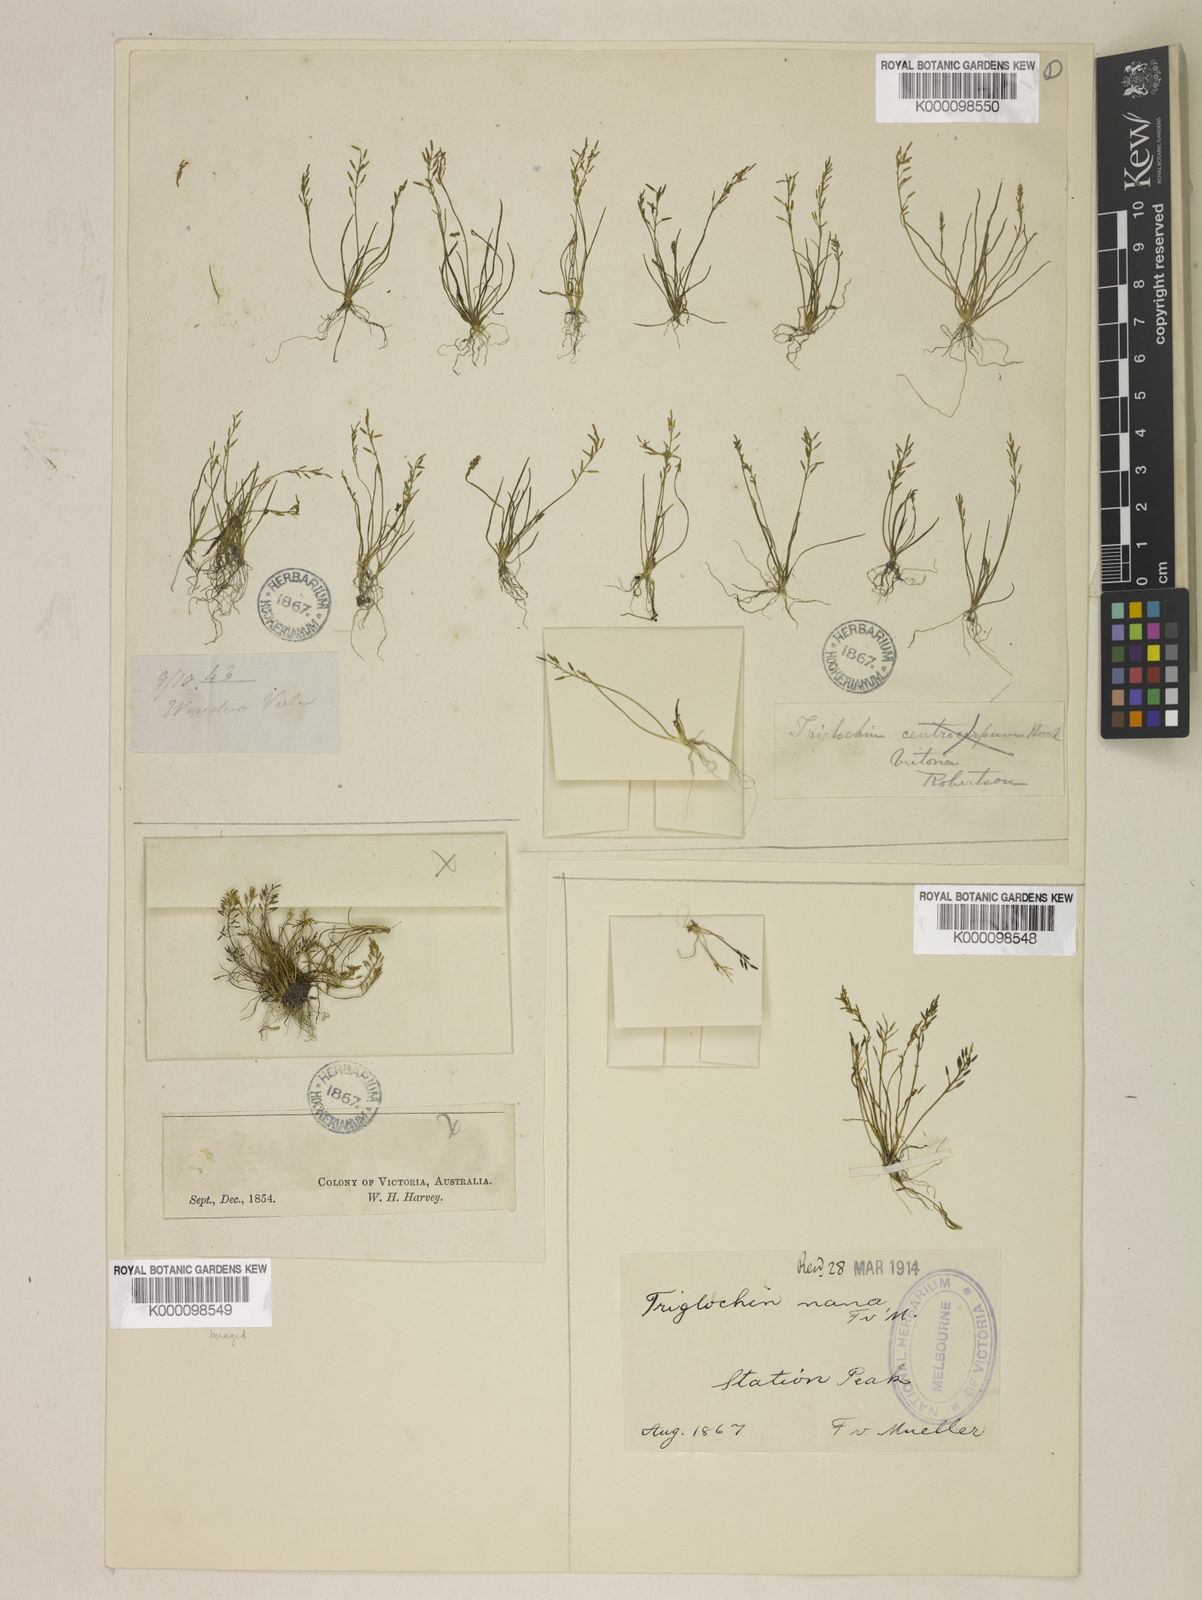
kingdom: Plantae
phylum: Tracheophyta
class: Liliopsida
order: Alismatales
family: Juncaginaceae
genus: Triglochin
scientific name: Triglochin nana
